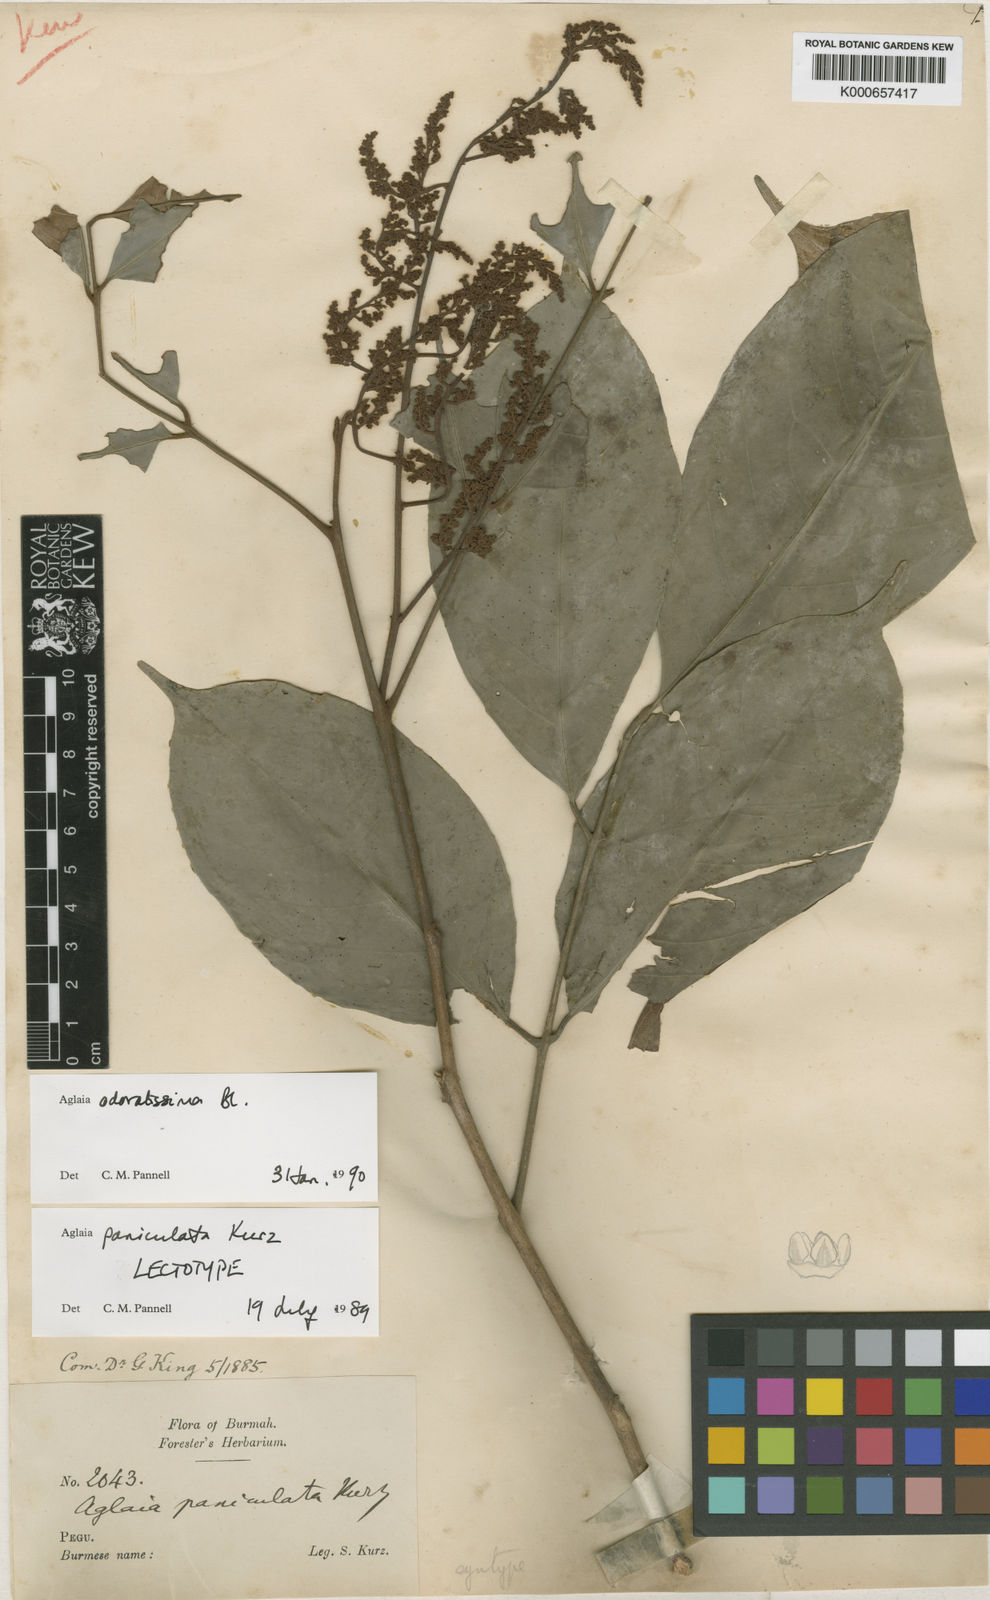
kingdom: Plantae
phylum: Tracheophyta
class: Magnoliopsida
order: Sapindales
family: Meliaceae
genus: Aglaia
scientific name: Aglaia odoratissima
